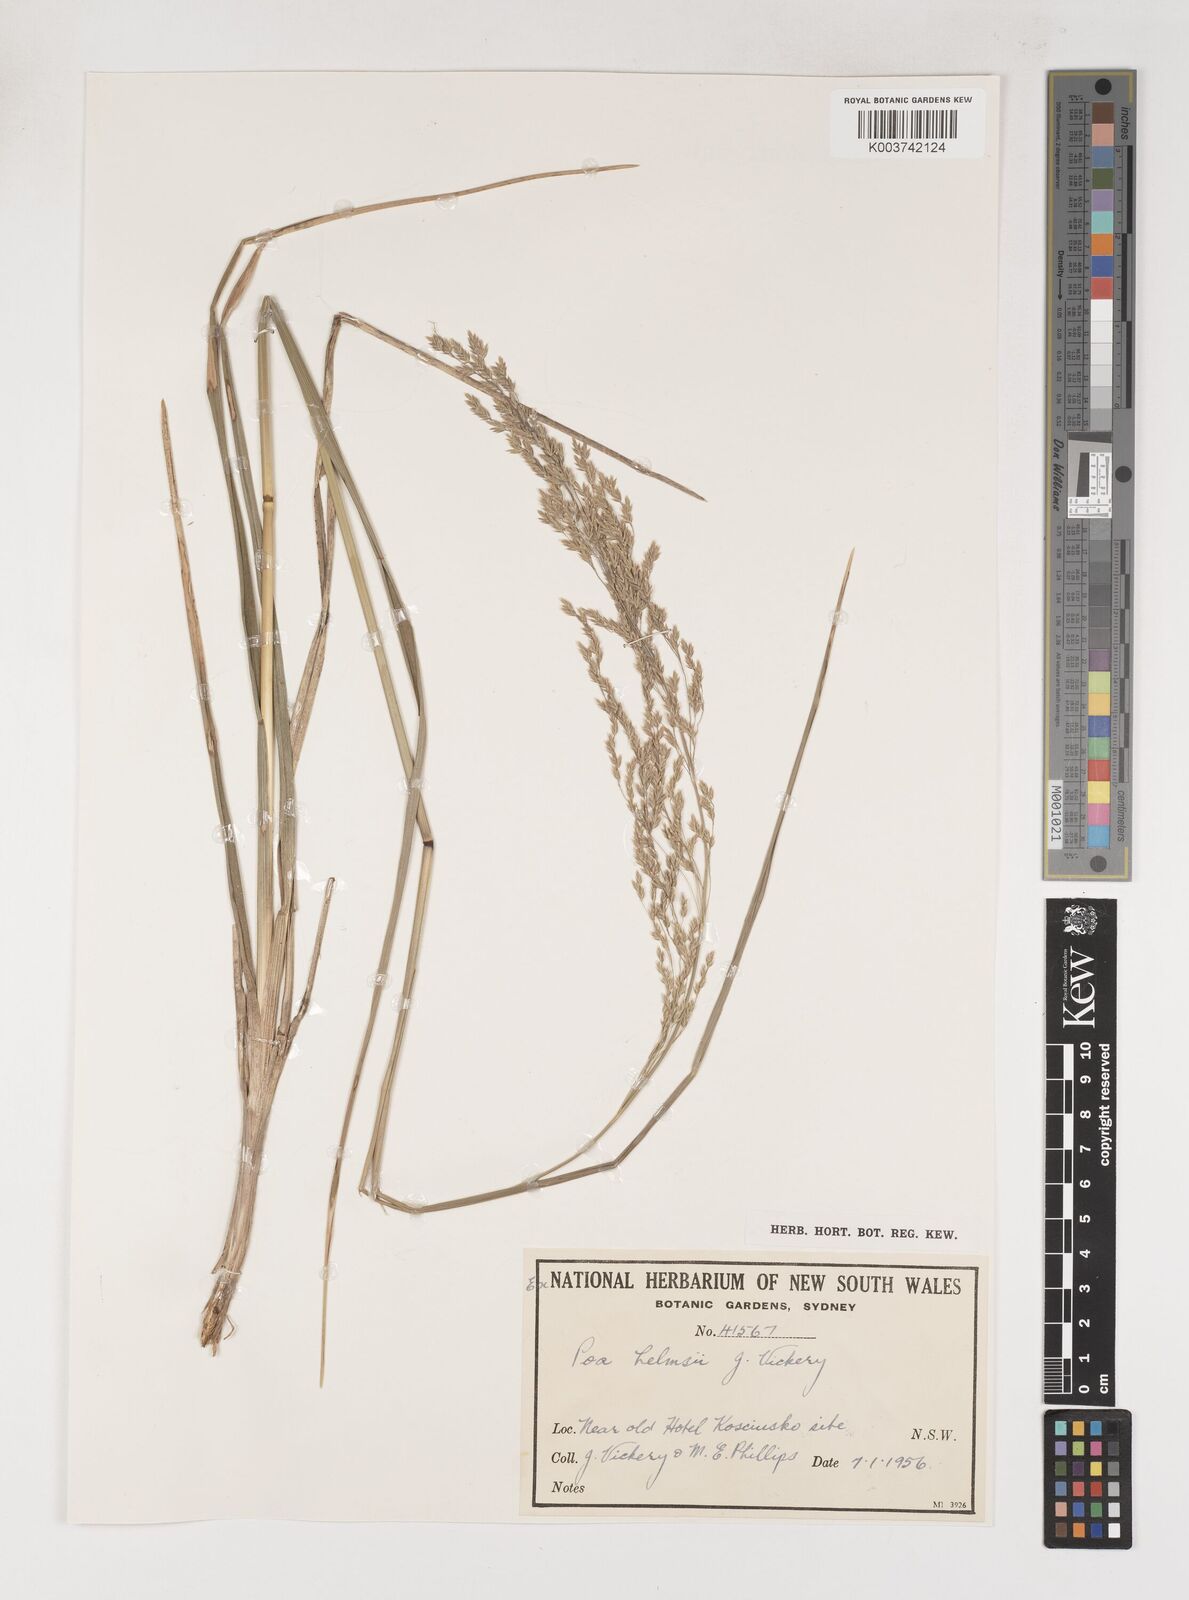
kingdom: Plantae
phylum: Tracheophyta
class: Liliopsida
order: Poales
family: Poaceae
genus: Poa
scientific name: Poa helmsii
